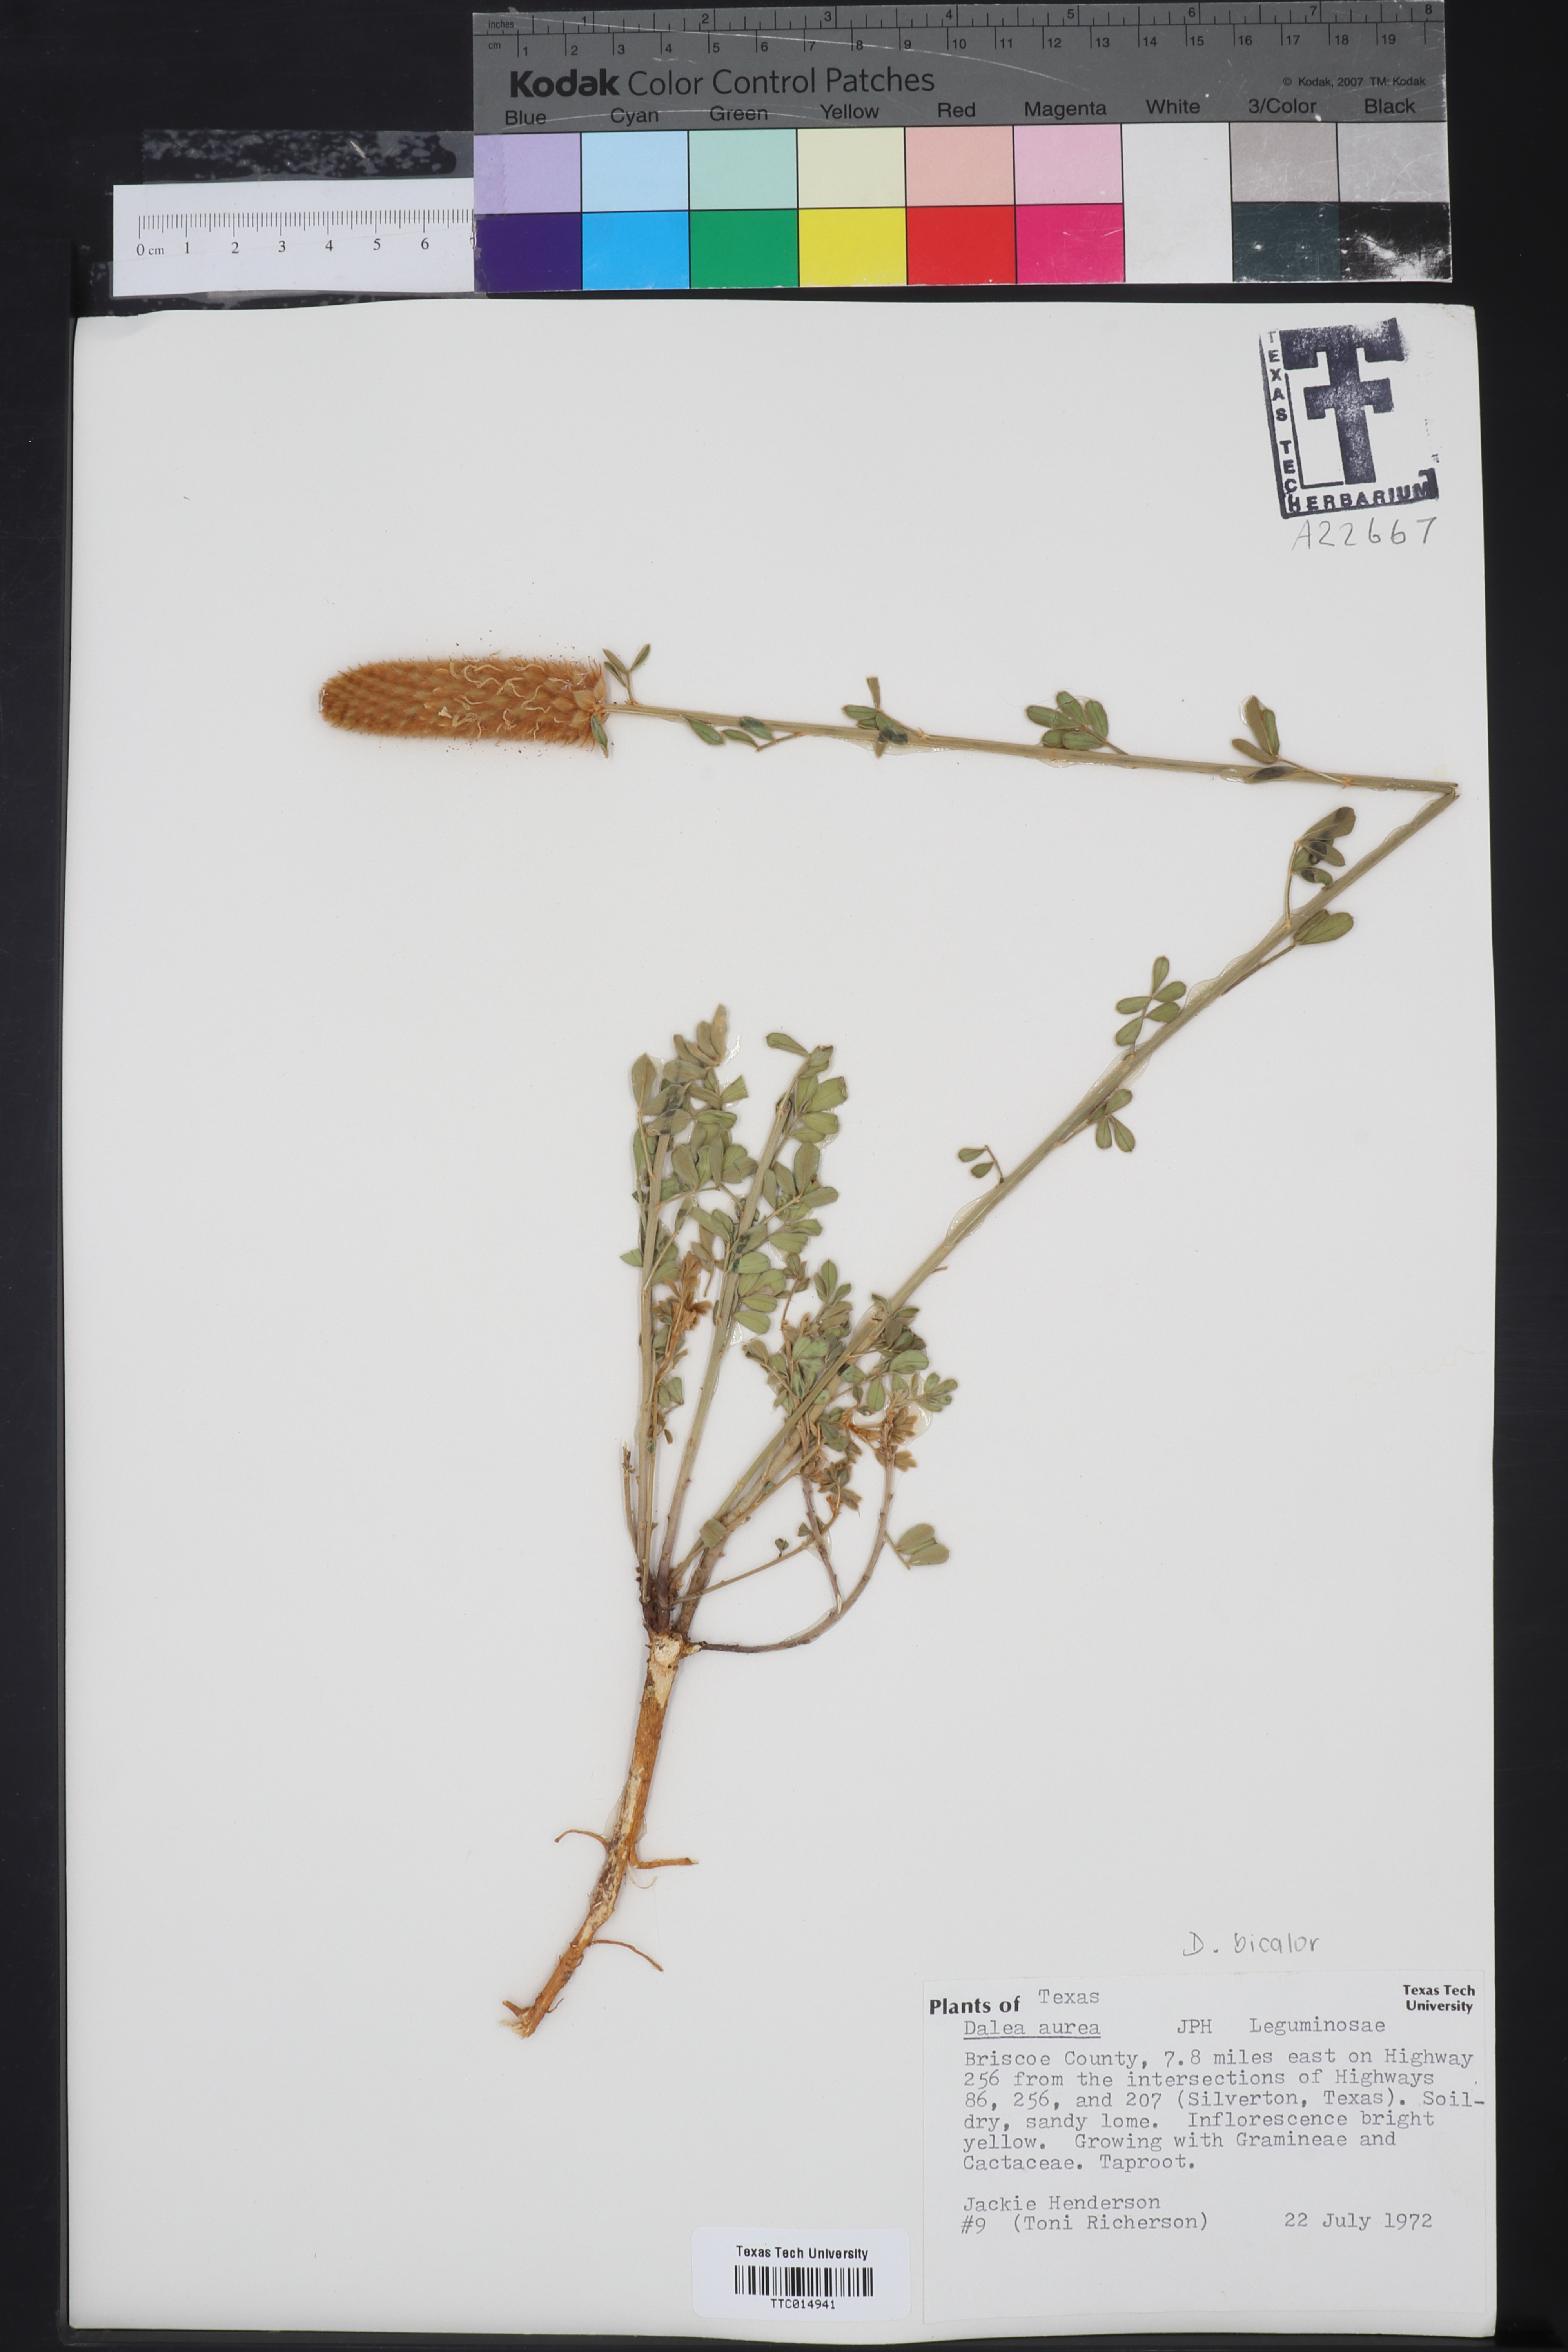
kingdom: Plantae
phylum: Tracheophyta
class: Magnoliopsida
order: Fabales
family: Fabaceae
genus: Dalea
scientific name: Dalea aurea
